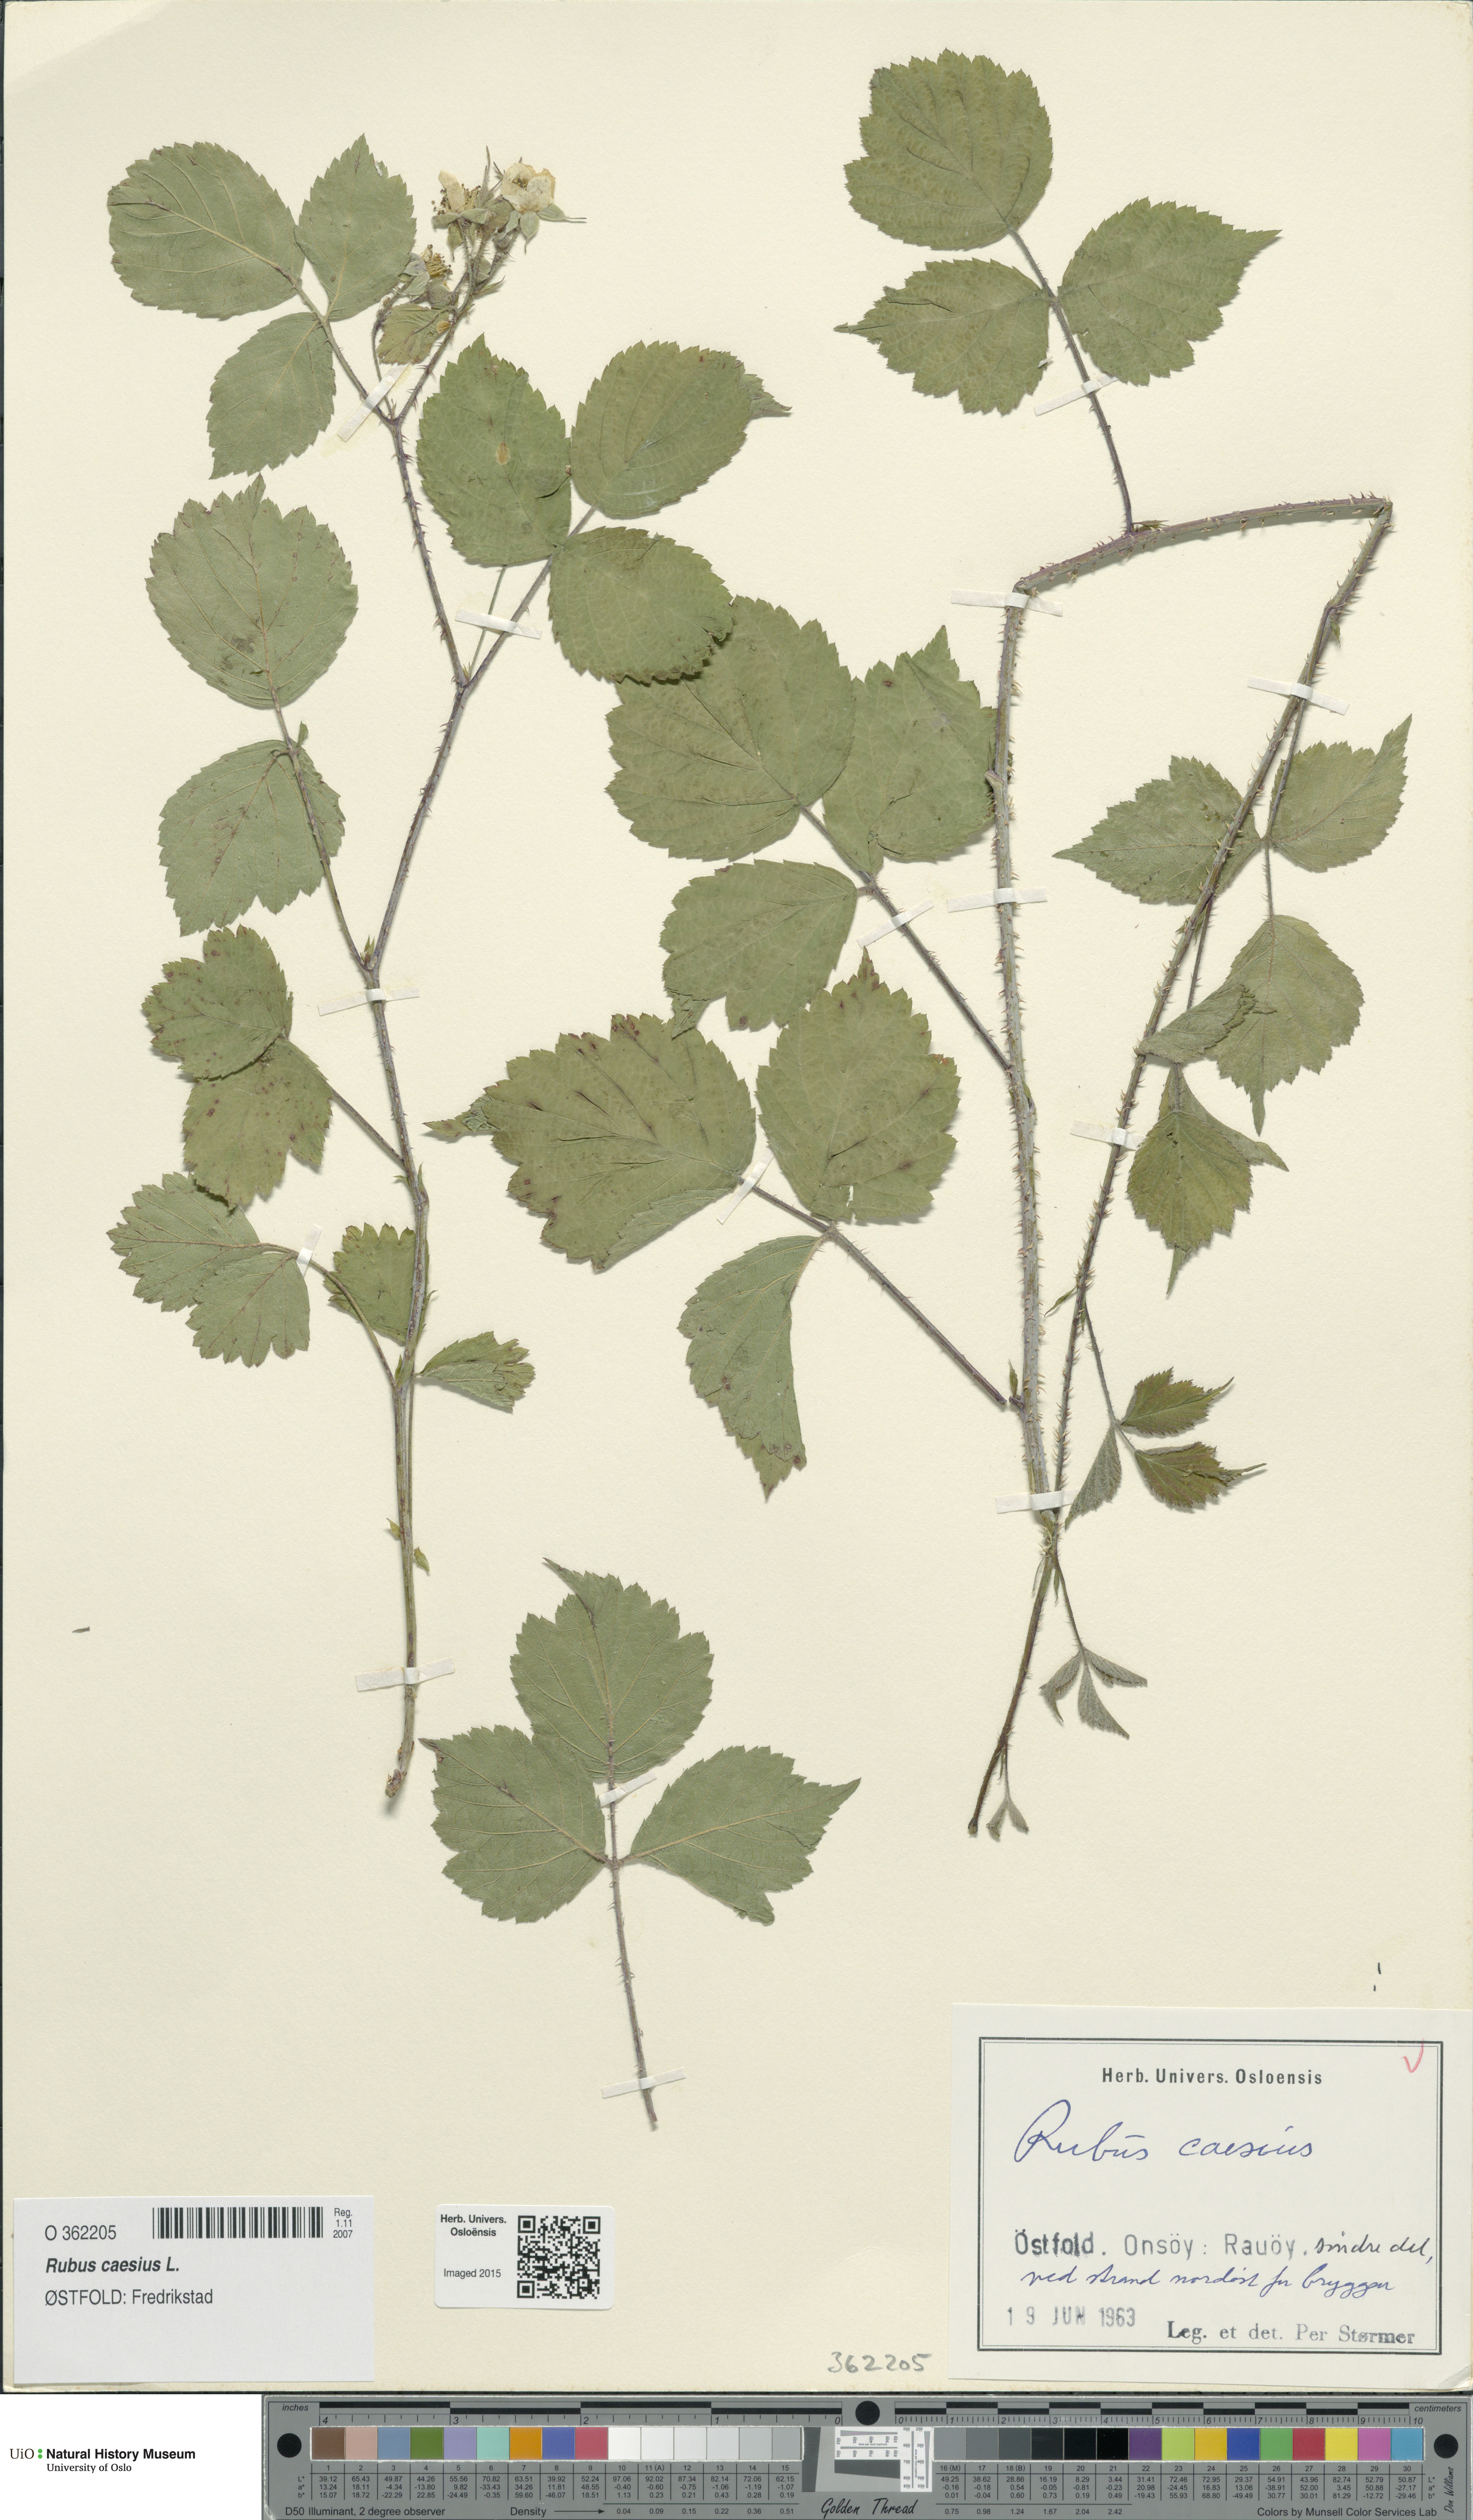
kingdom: Plantae
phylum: Tracheophyta
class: Magnoliopsida
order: Rosales
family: Rosaceae
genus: Rubus
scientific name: Rubus caesius
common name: Dewberry
